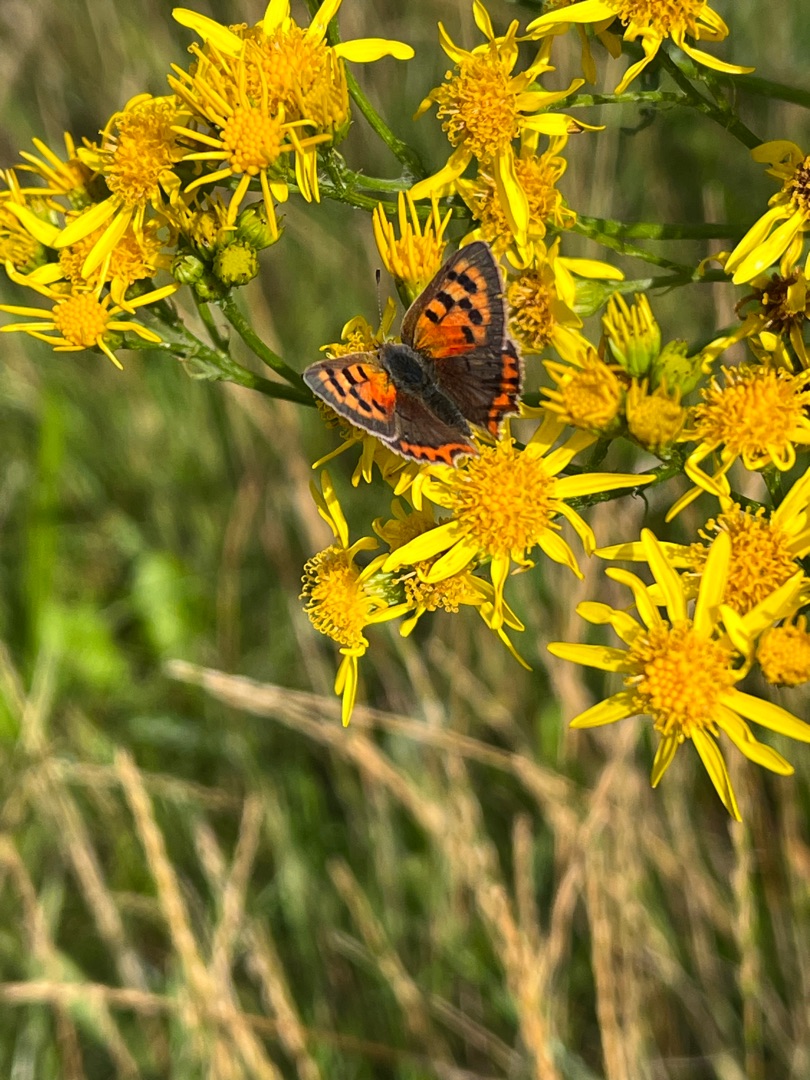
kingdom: Animalia
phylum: Arthropoda
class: Insecta
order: Lepidoptera
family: Lycaenidae
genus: Lycaena
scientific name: Lycaena phlaeas
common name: Lille ildfugl
